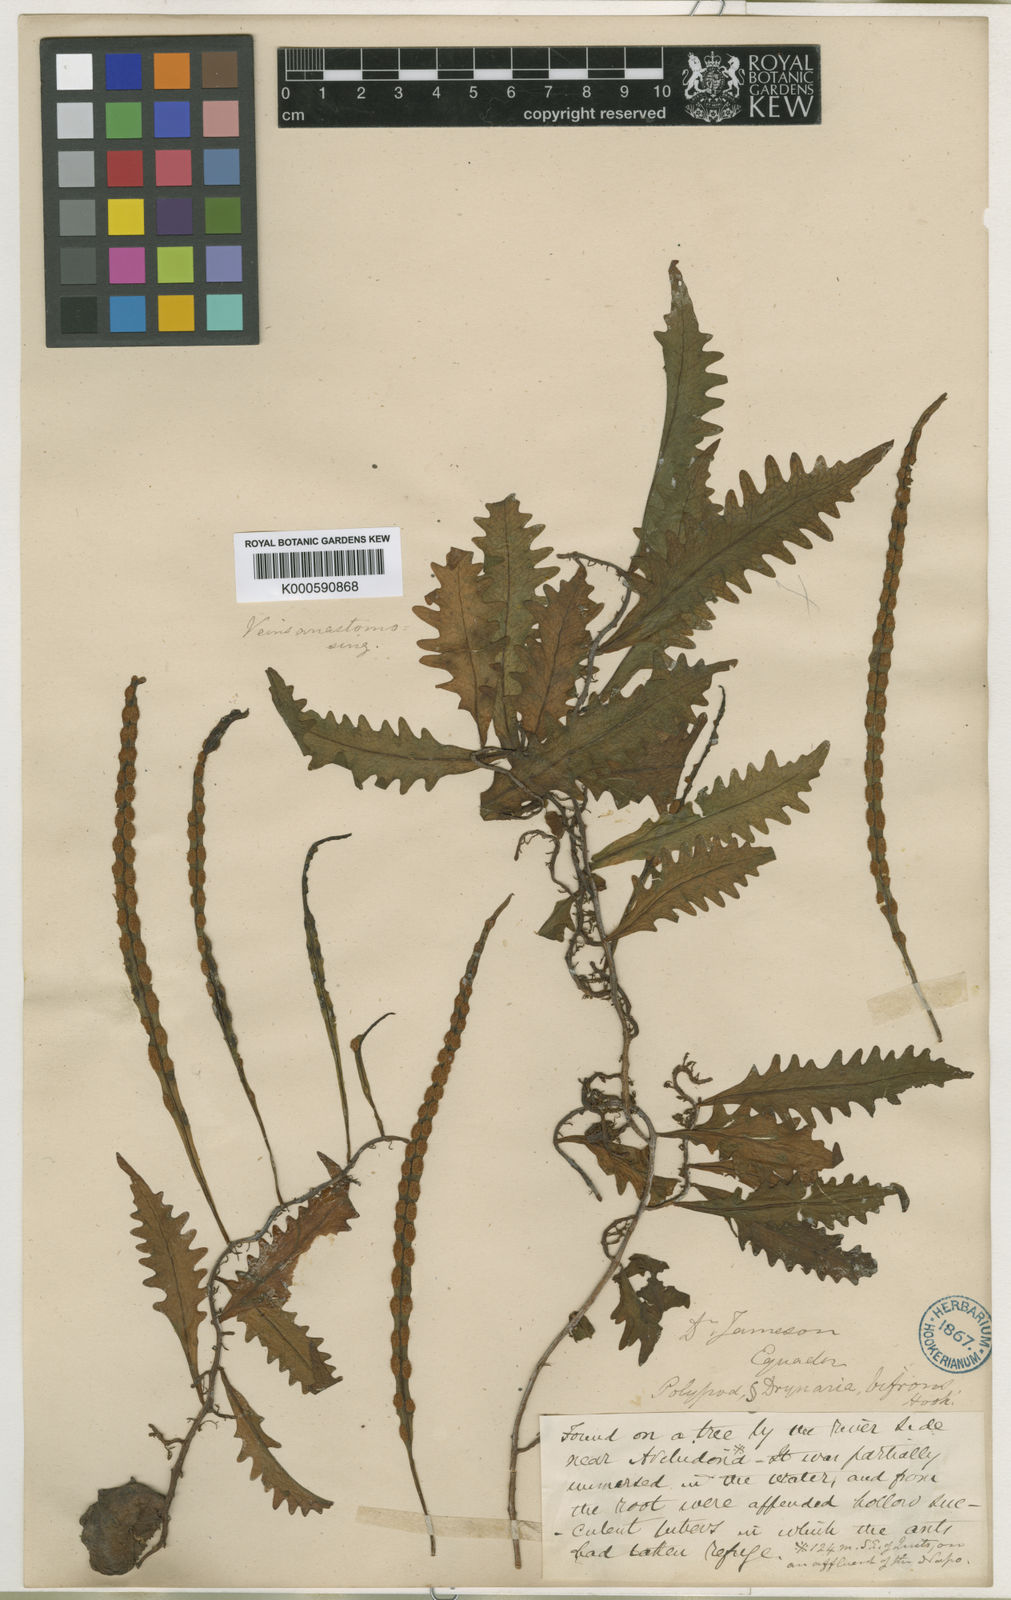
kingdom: Plantae
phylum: Tracheophyta
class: Polypodiopsida
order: Polypodiales
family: Polypodiaceae
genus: Microgramma
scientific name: Microgramma bifrons
